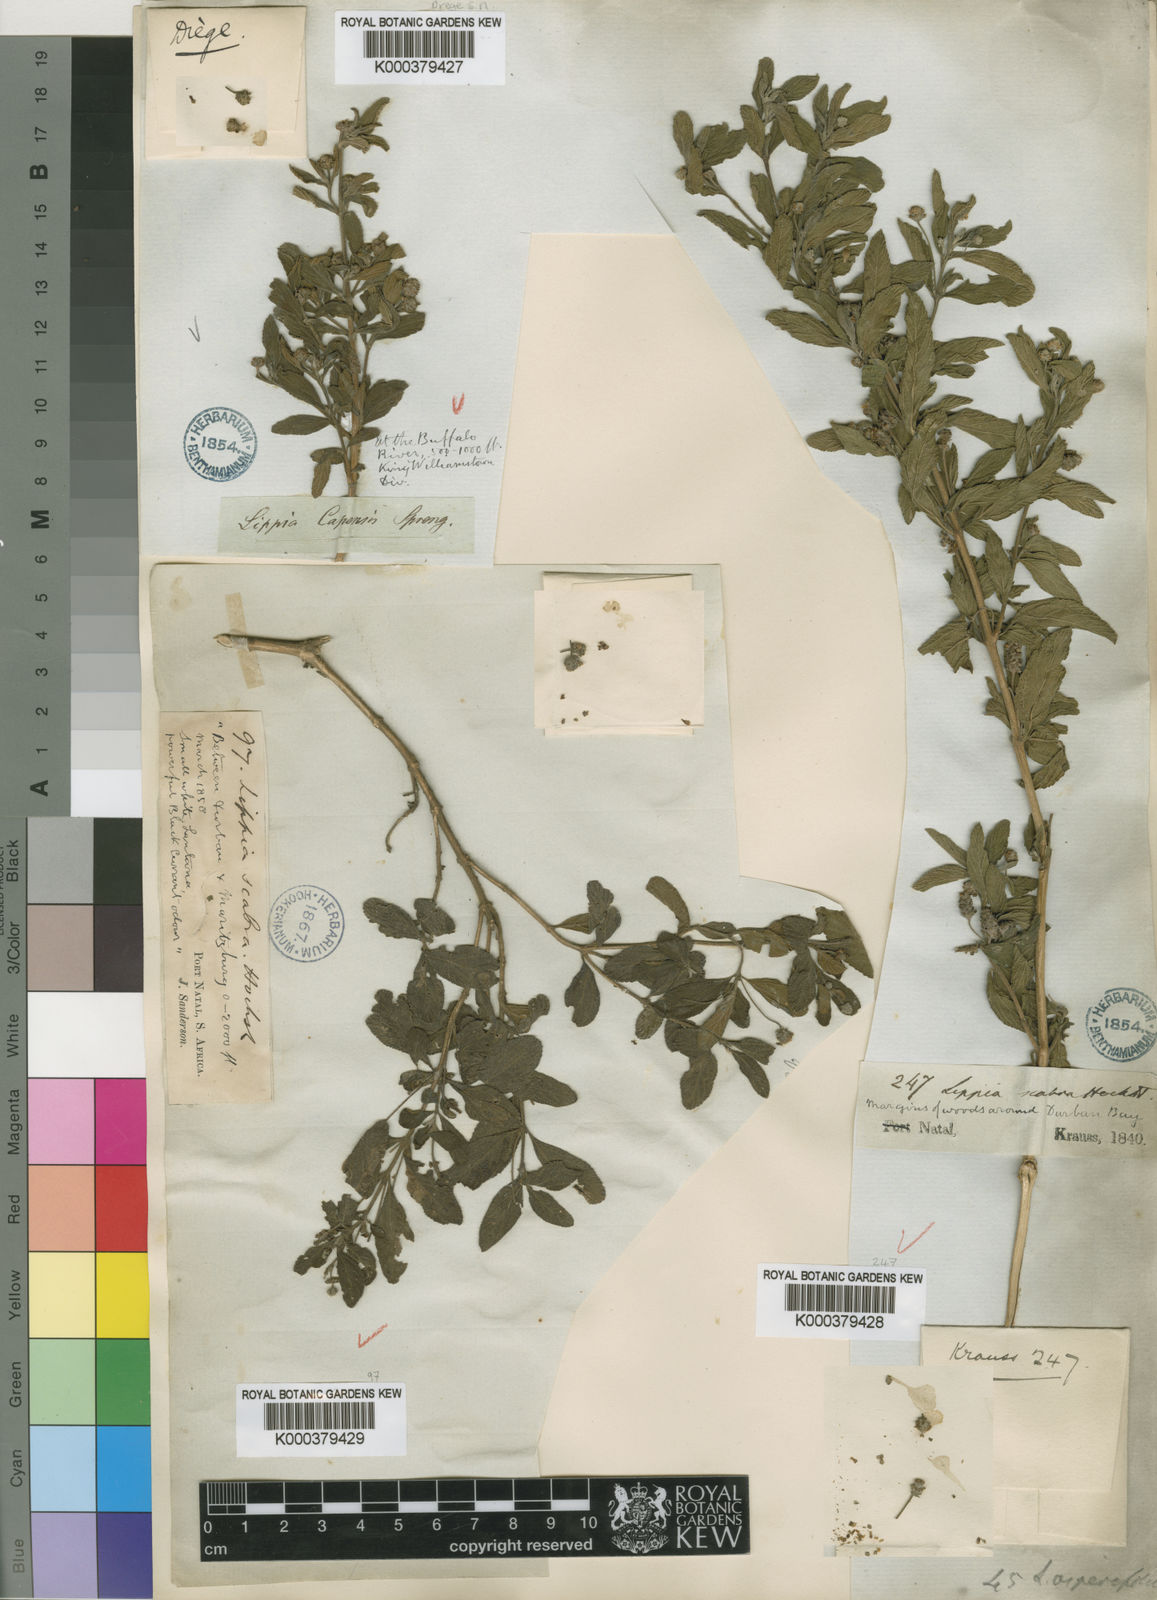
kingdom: Plantae
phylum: Tracheophyta
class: Magnoliopsida
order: Lamiales
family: Verbenaceae
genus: Lippia
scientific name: Lippia javanica
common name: Lemonbush
